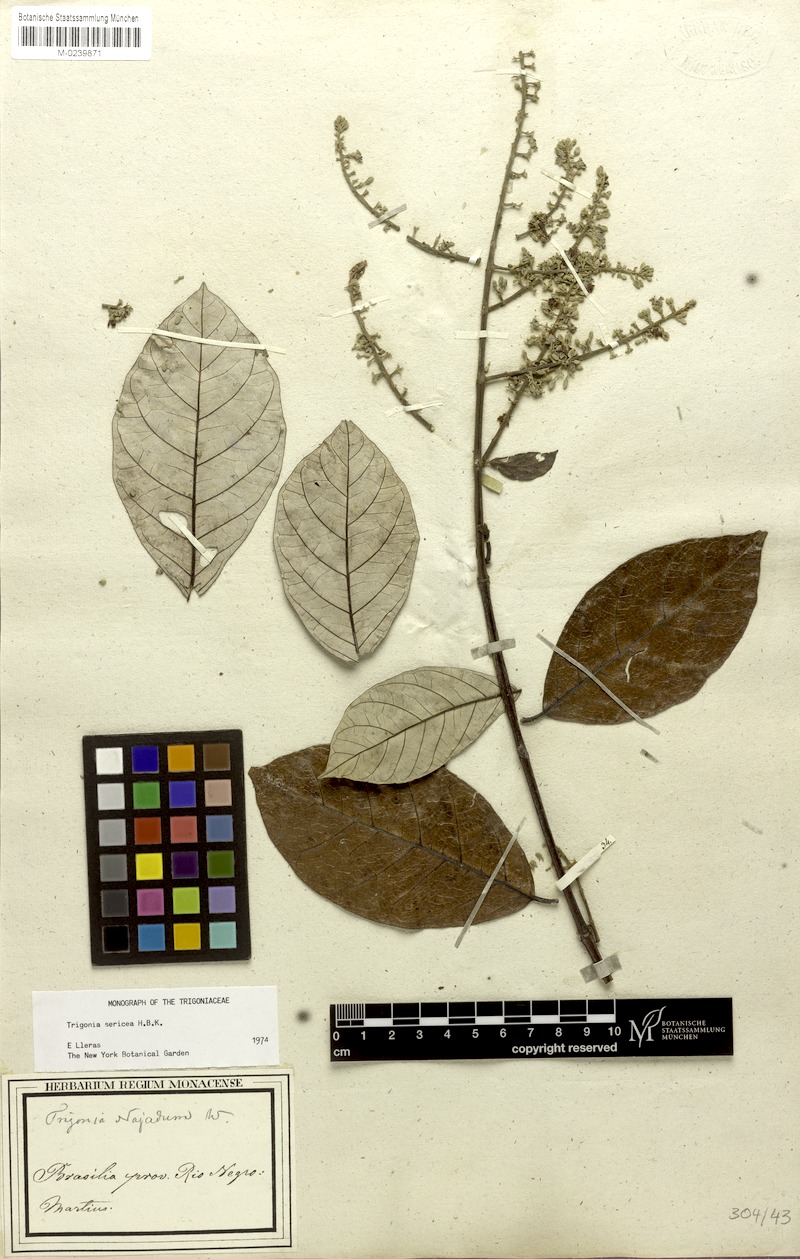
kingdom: Plantae
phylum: Tracheophyta
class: Magnoliopsida
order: Malpighiales
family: Trigoniaceae
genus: Trigonia
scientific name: Trigonia sericea
